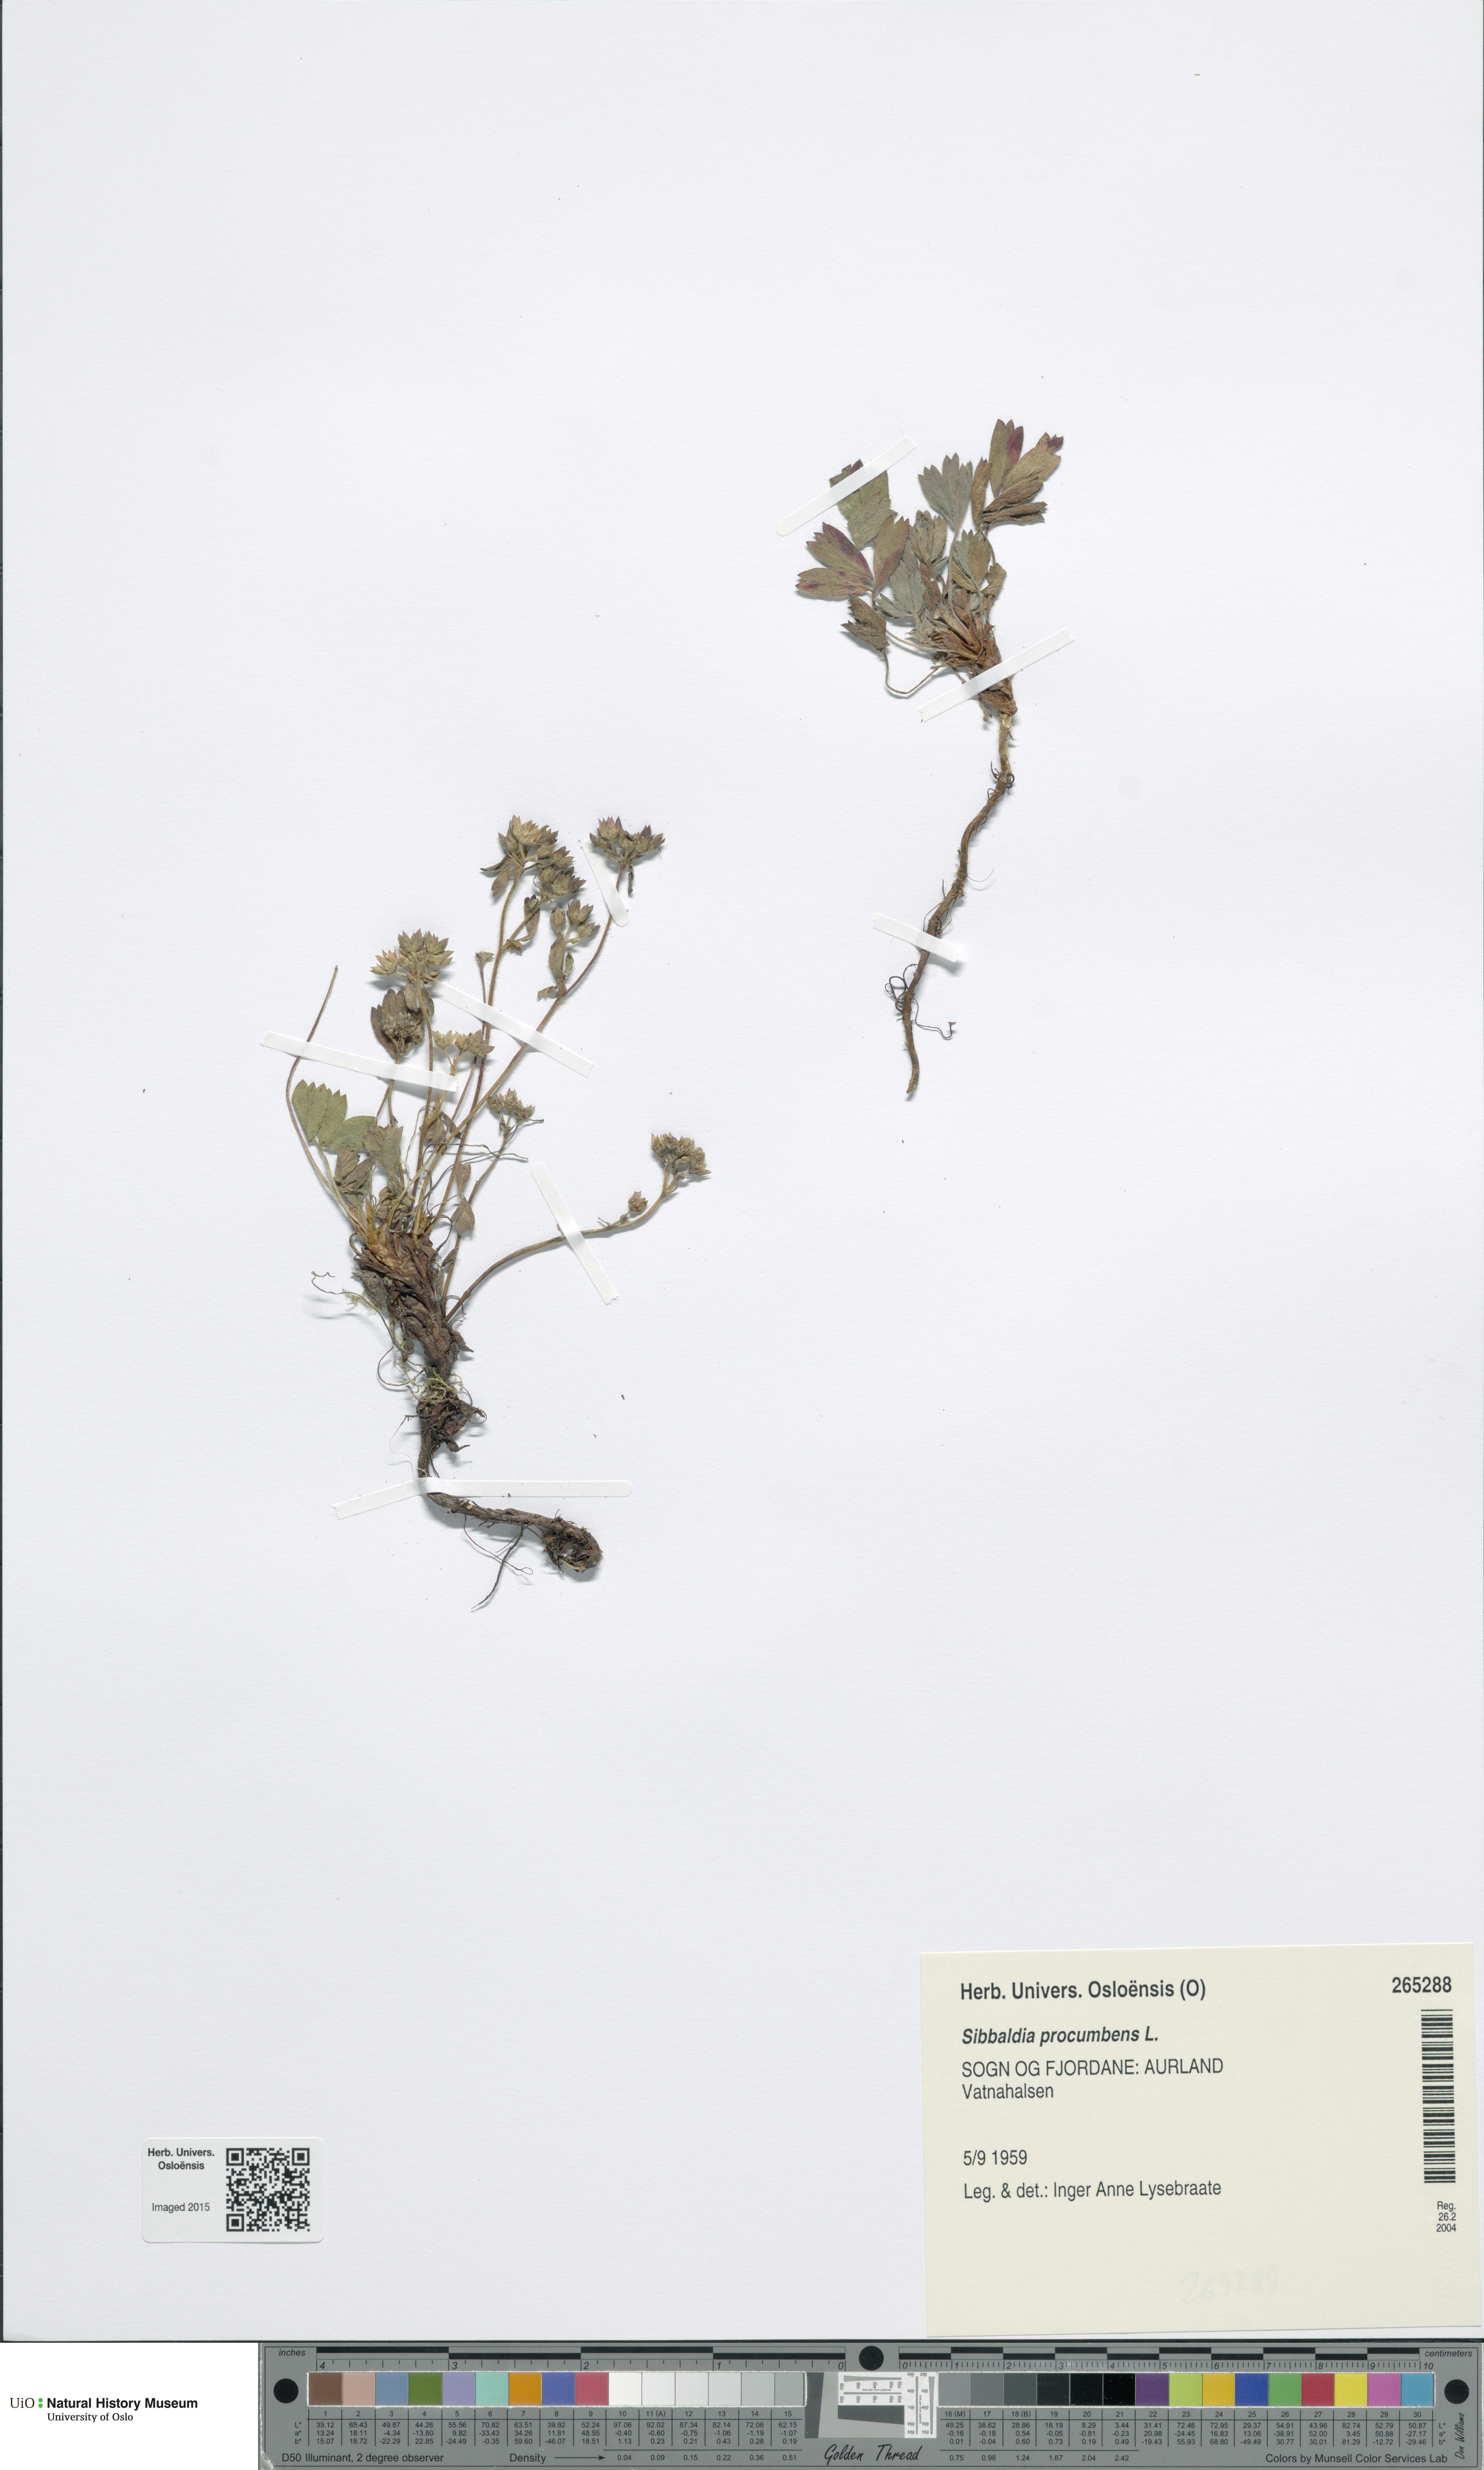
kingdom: Plantae
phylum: Tracheophyta
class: Magnoliopsida
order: Rosales
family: Rosaceae
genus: Sibbaldia
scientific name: Sibbaldia procumbens
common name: Creeping sibbaldia
